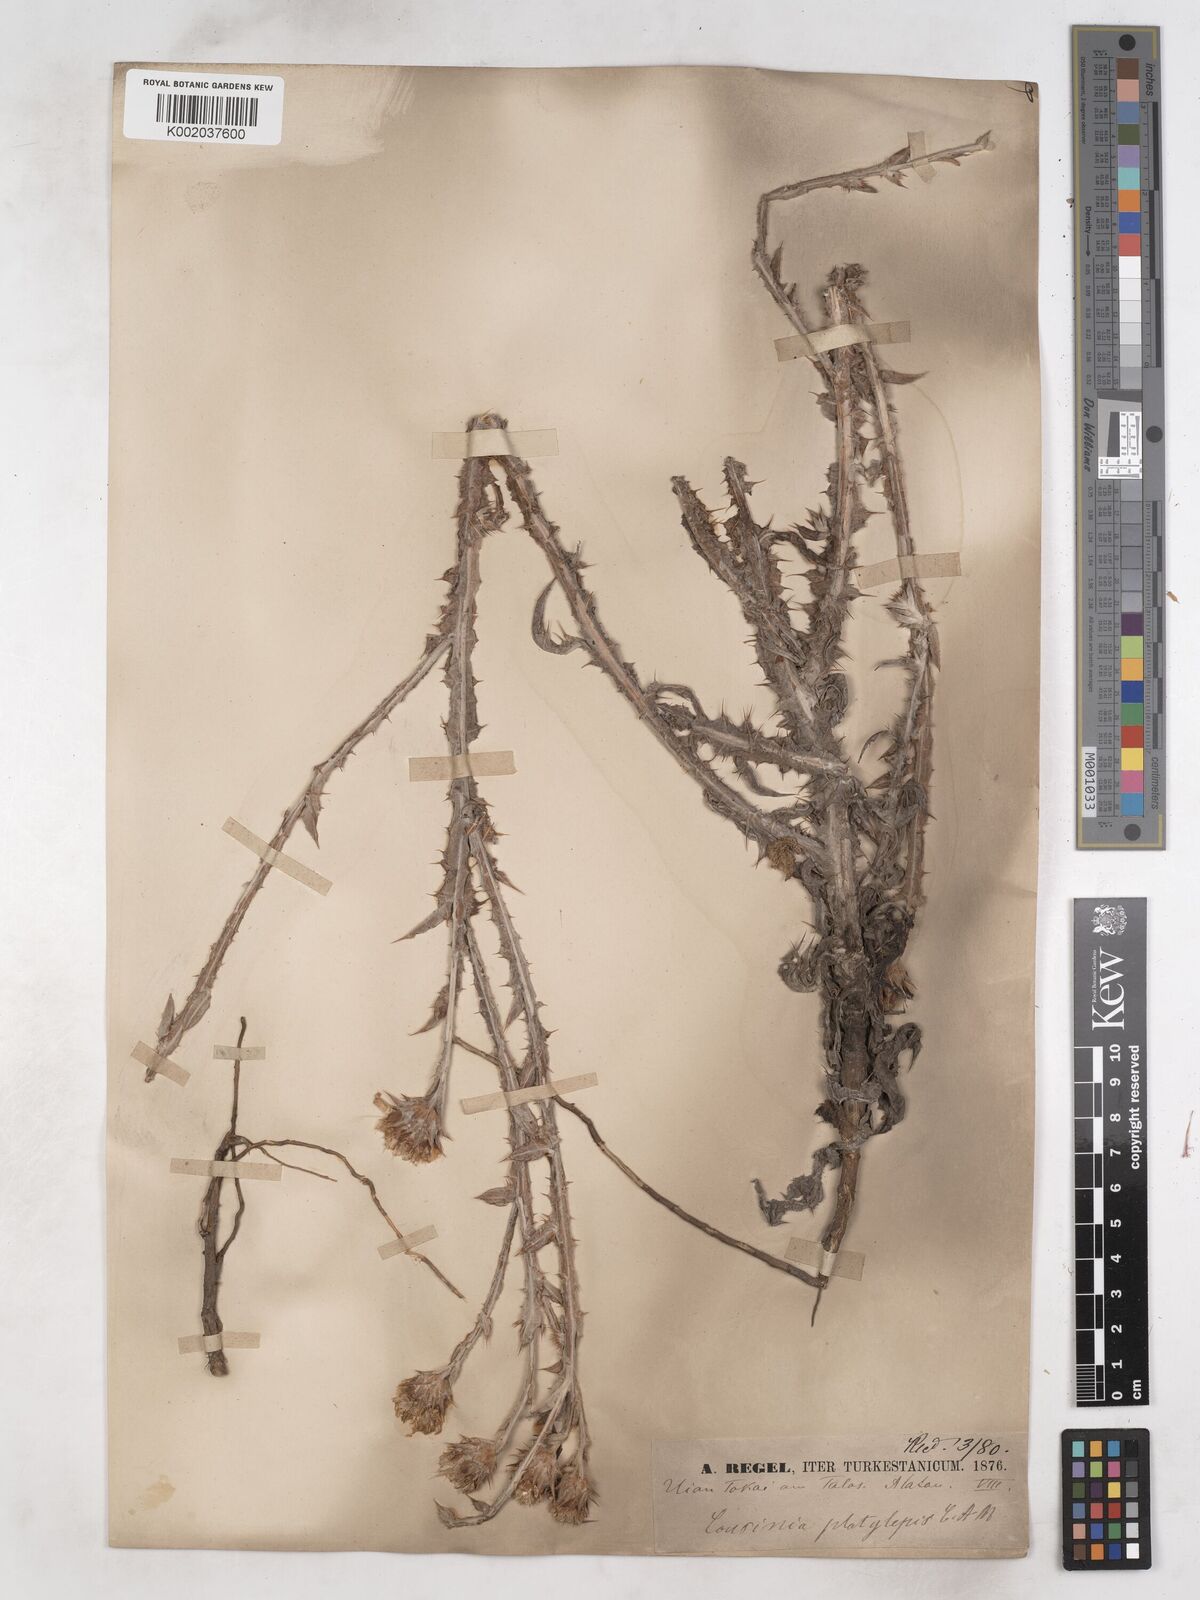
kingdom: Plantae
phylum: Tracheophyta
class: Magnoliopsida
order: Asterales
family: Asteraceae
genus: Cousinia
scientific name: Cousinia platylepis
